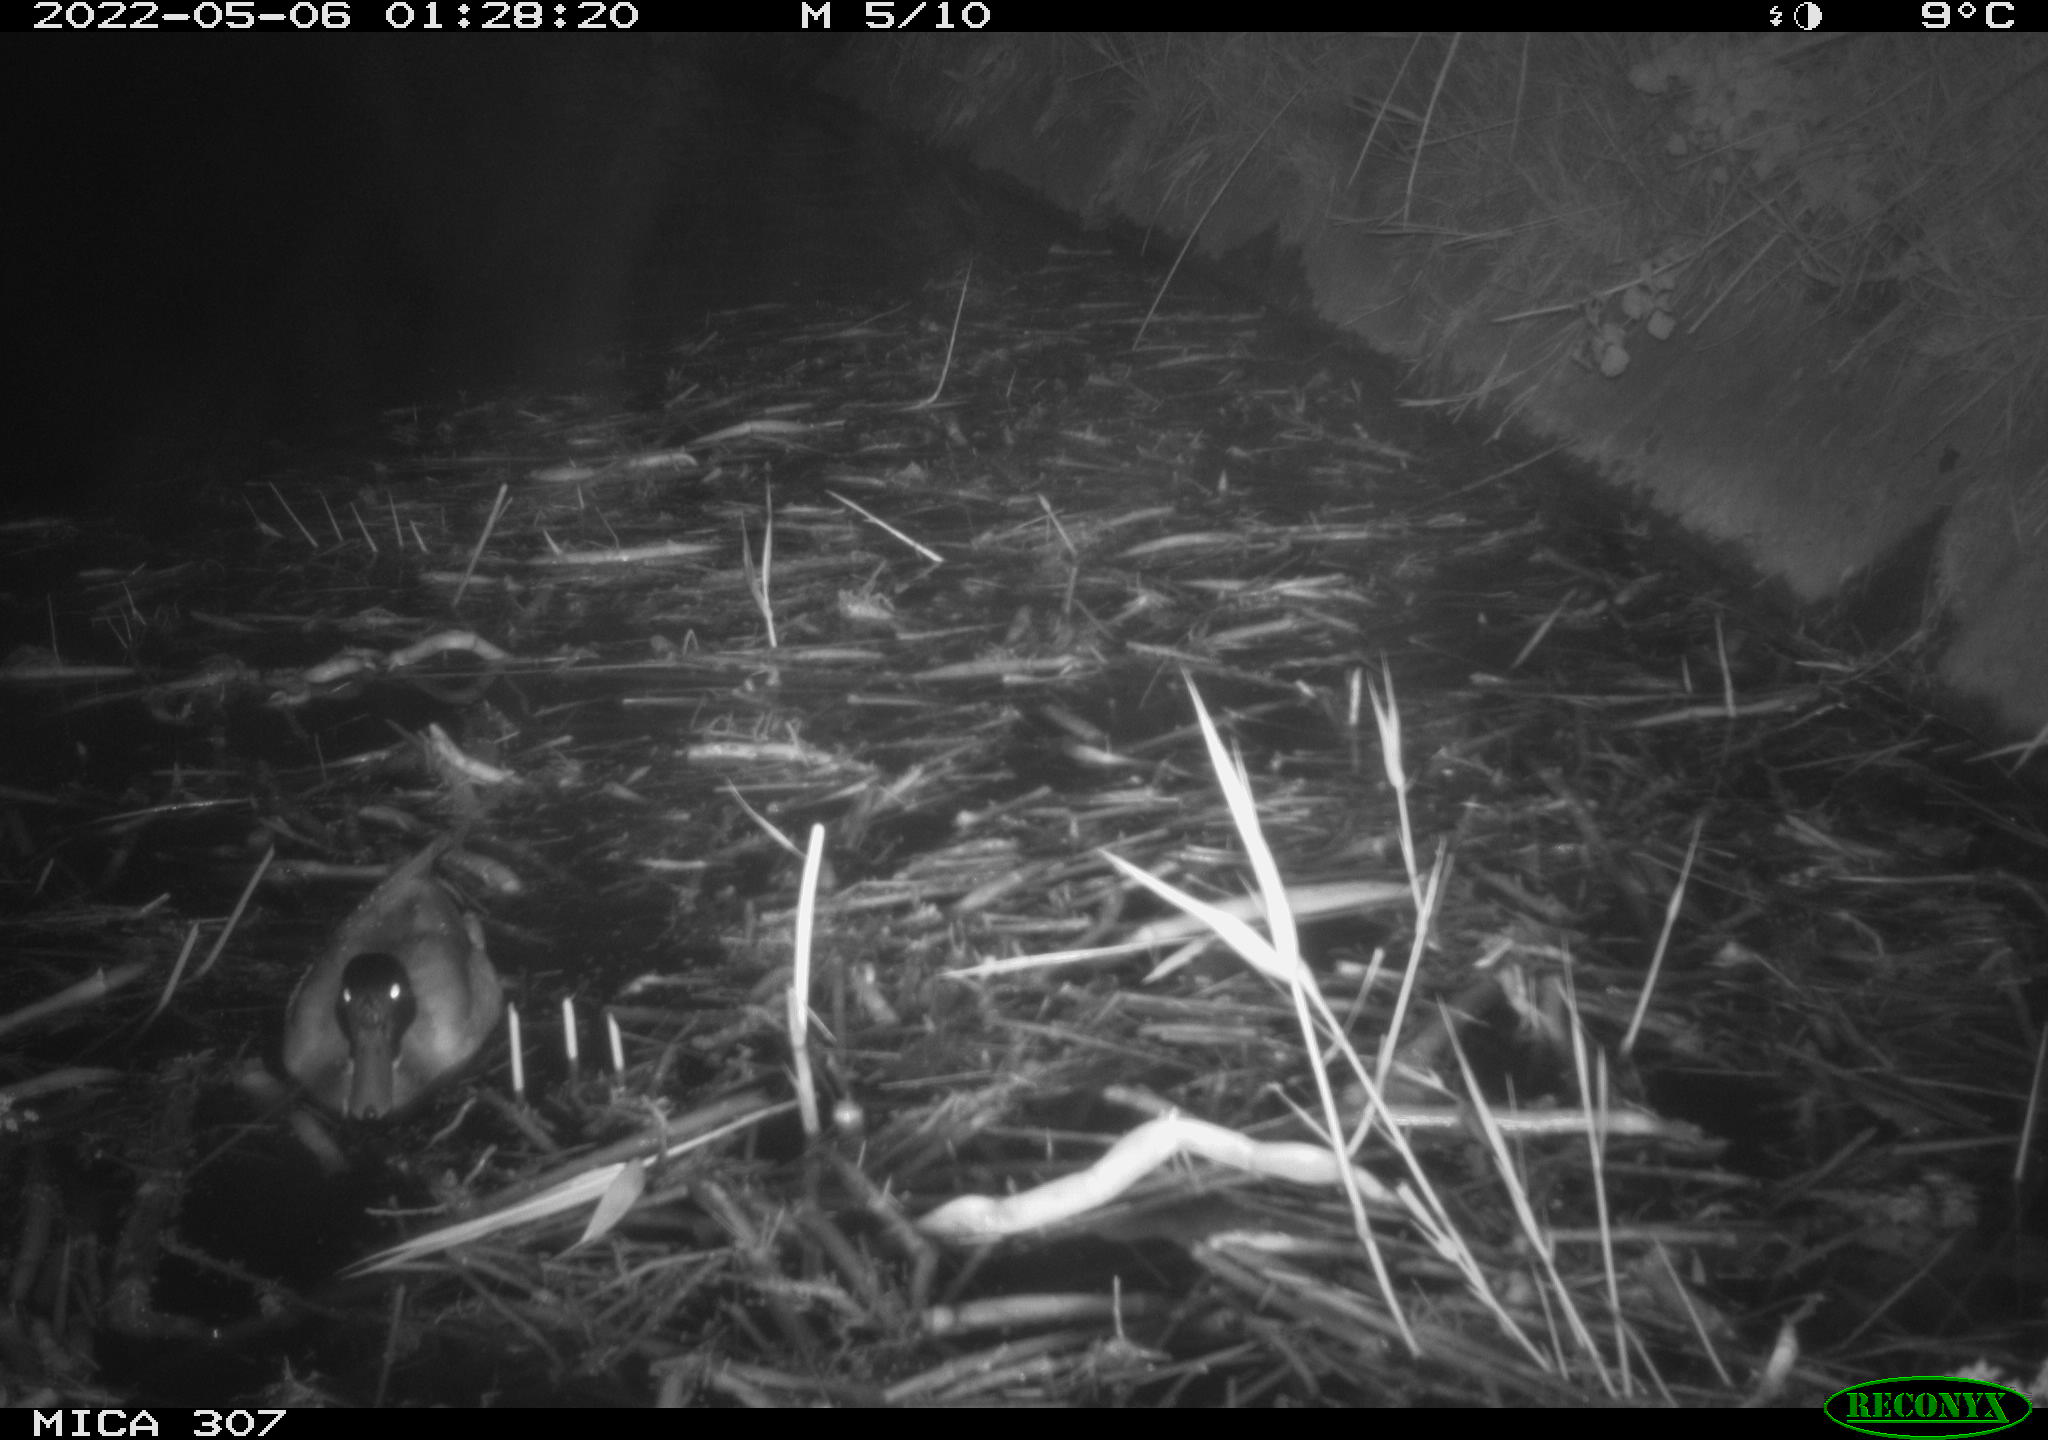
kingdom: Animalia
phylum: Chordata
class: Aves
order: Anseriformes
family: Anatidae
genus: Anas
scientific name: Anas platyrhynchos
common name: Mallard
